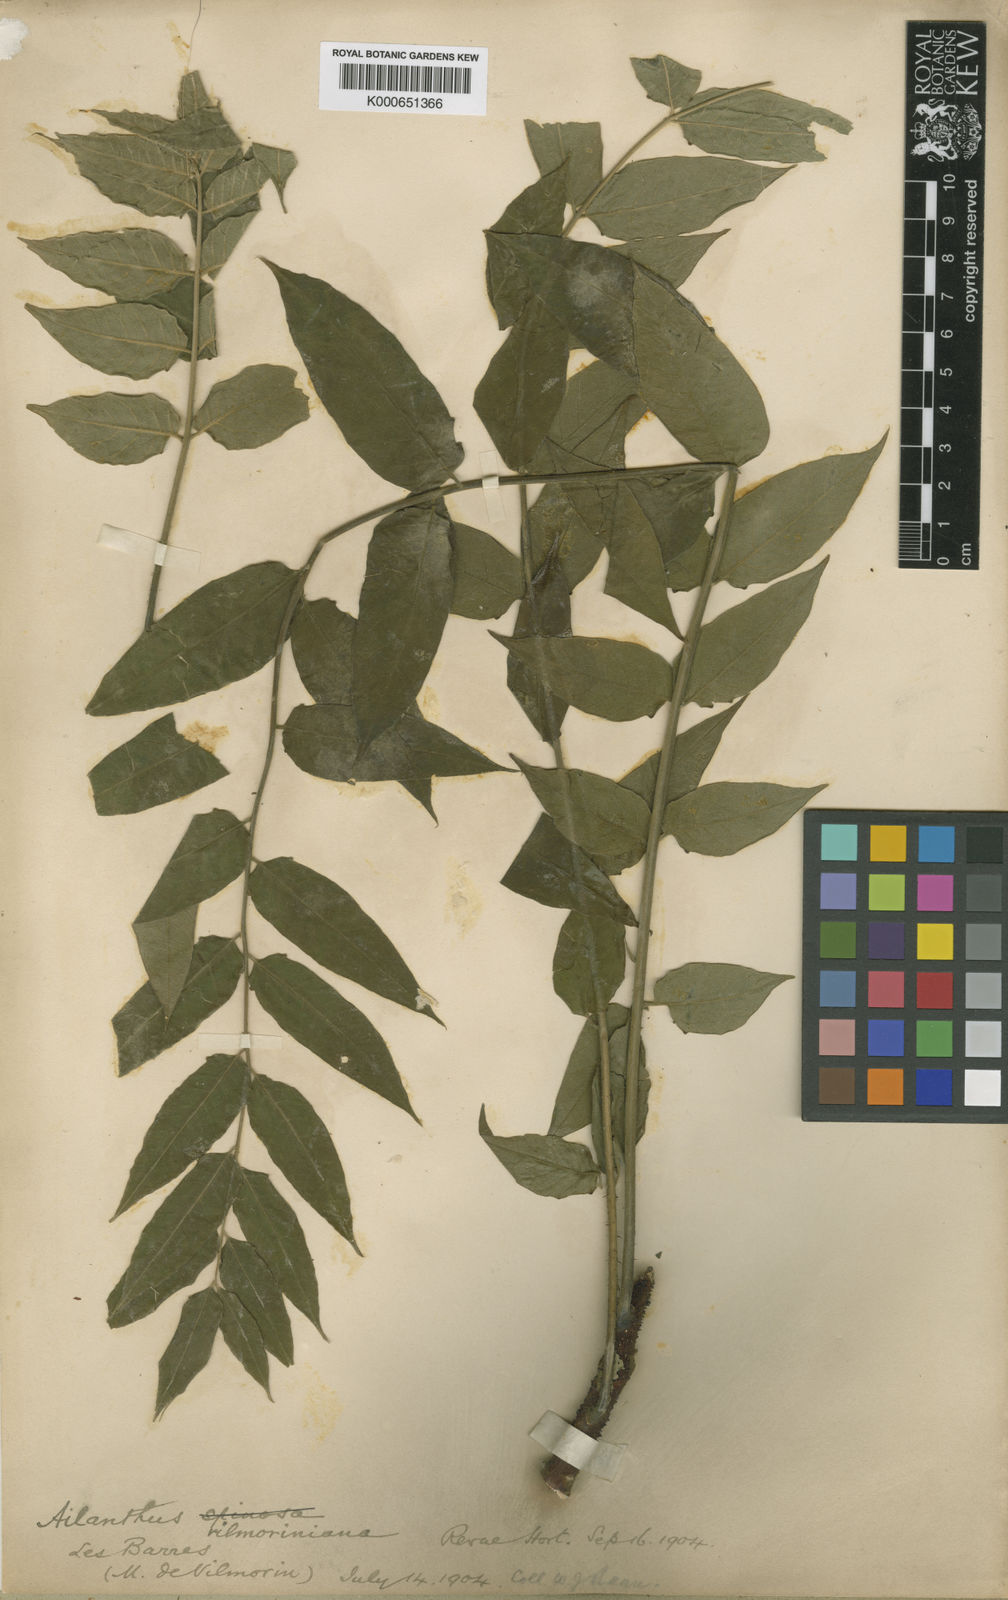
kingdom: Plantae
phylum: Tracheophyta
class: Magnoliopsida
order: Sapindales
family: Simaroubaceae
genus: Ailanthus
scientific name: Ailanthus altissima
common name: Tree-of-heaven
